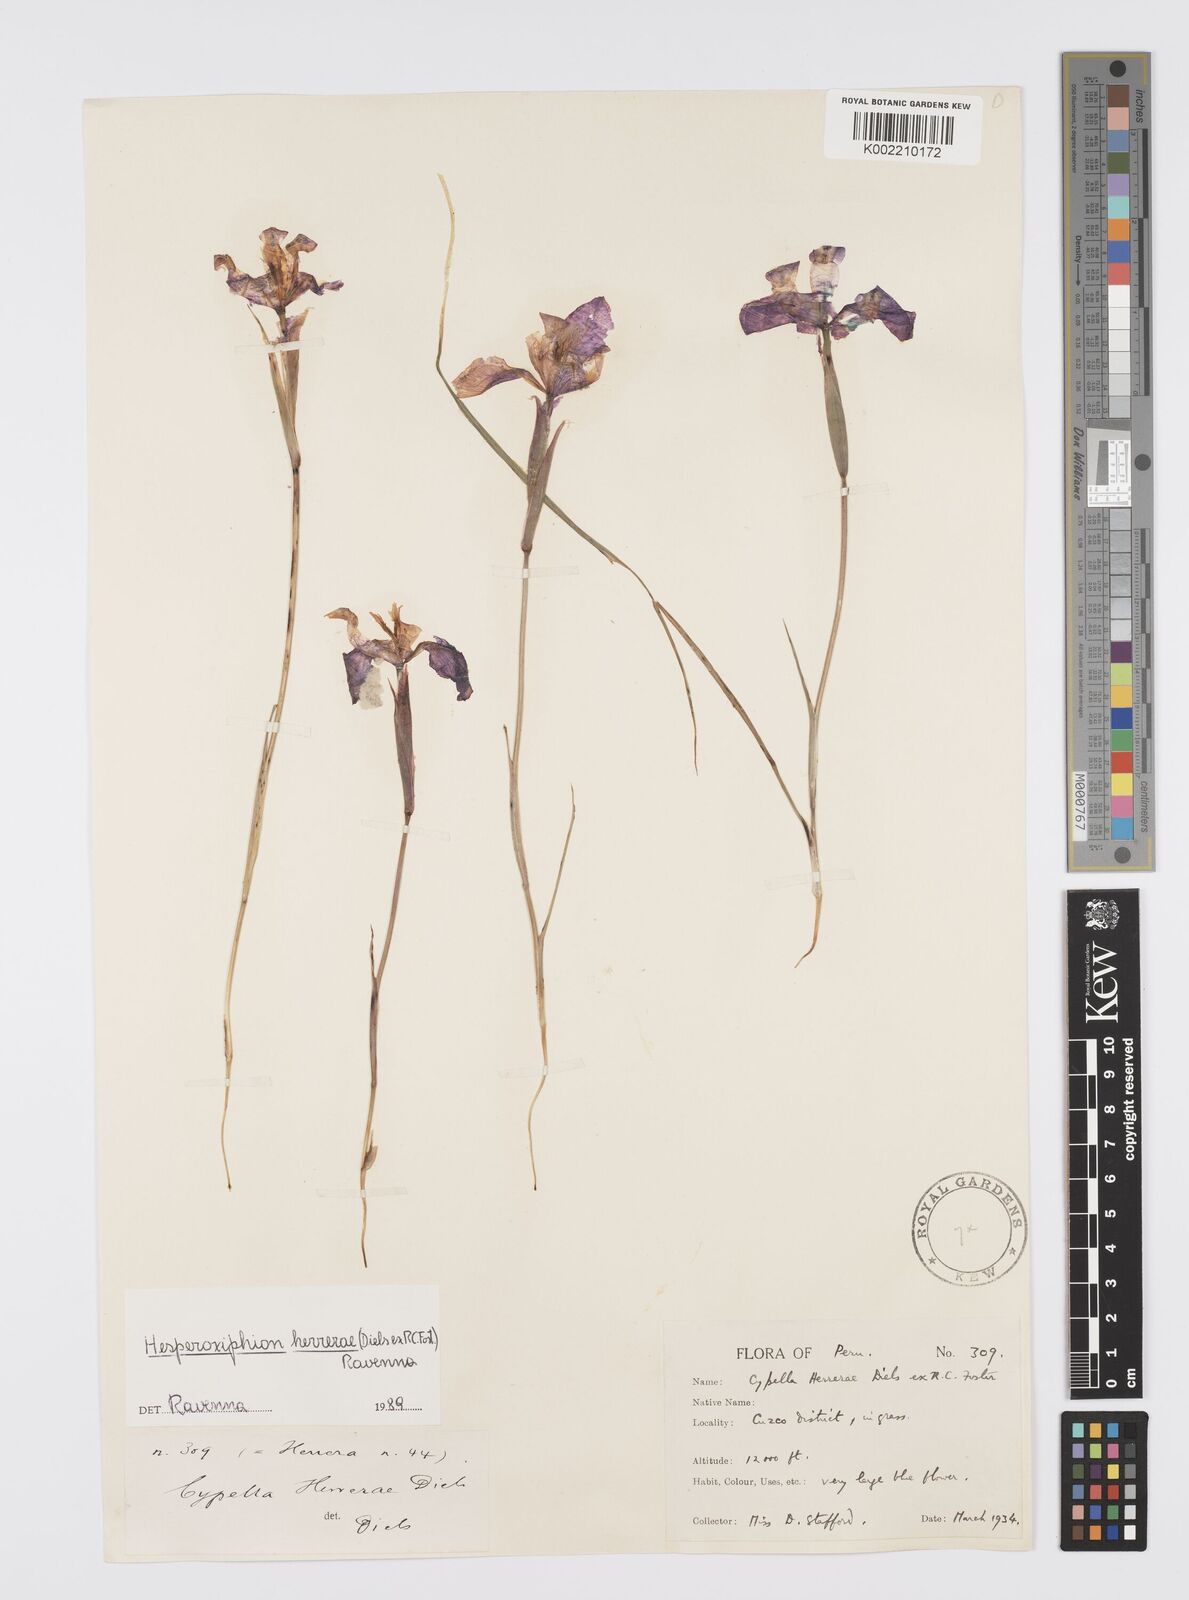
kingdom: Plantae
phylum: Tracheophyta
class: Liliopsida
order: Asparagales
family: Iridaceae
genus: Hesperoxiphion
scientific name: Hesperoxiphion herrerae
